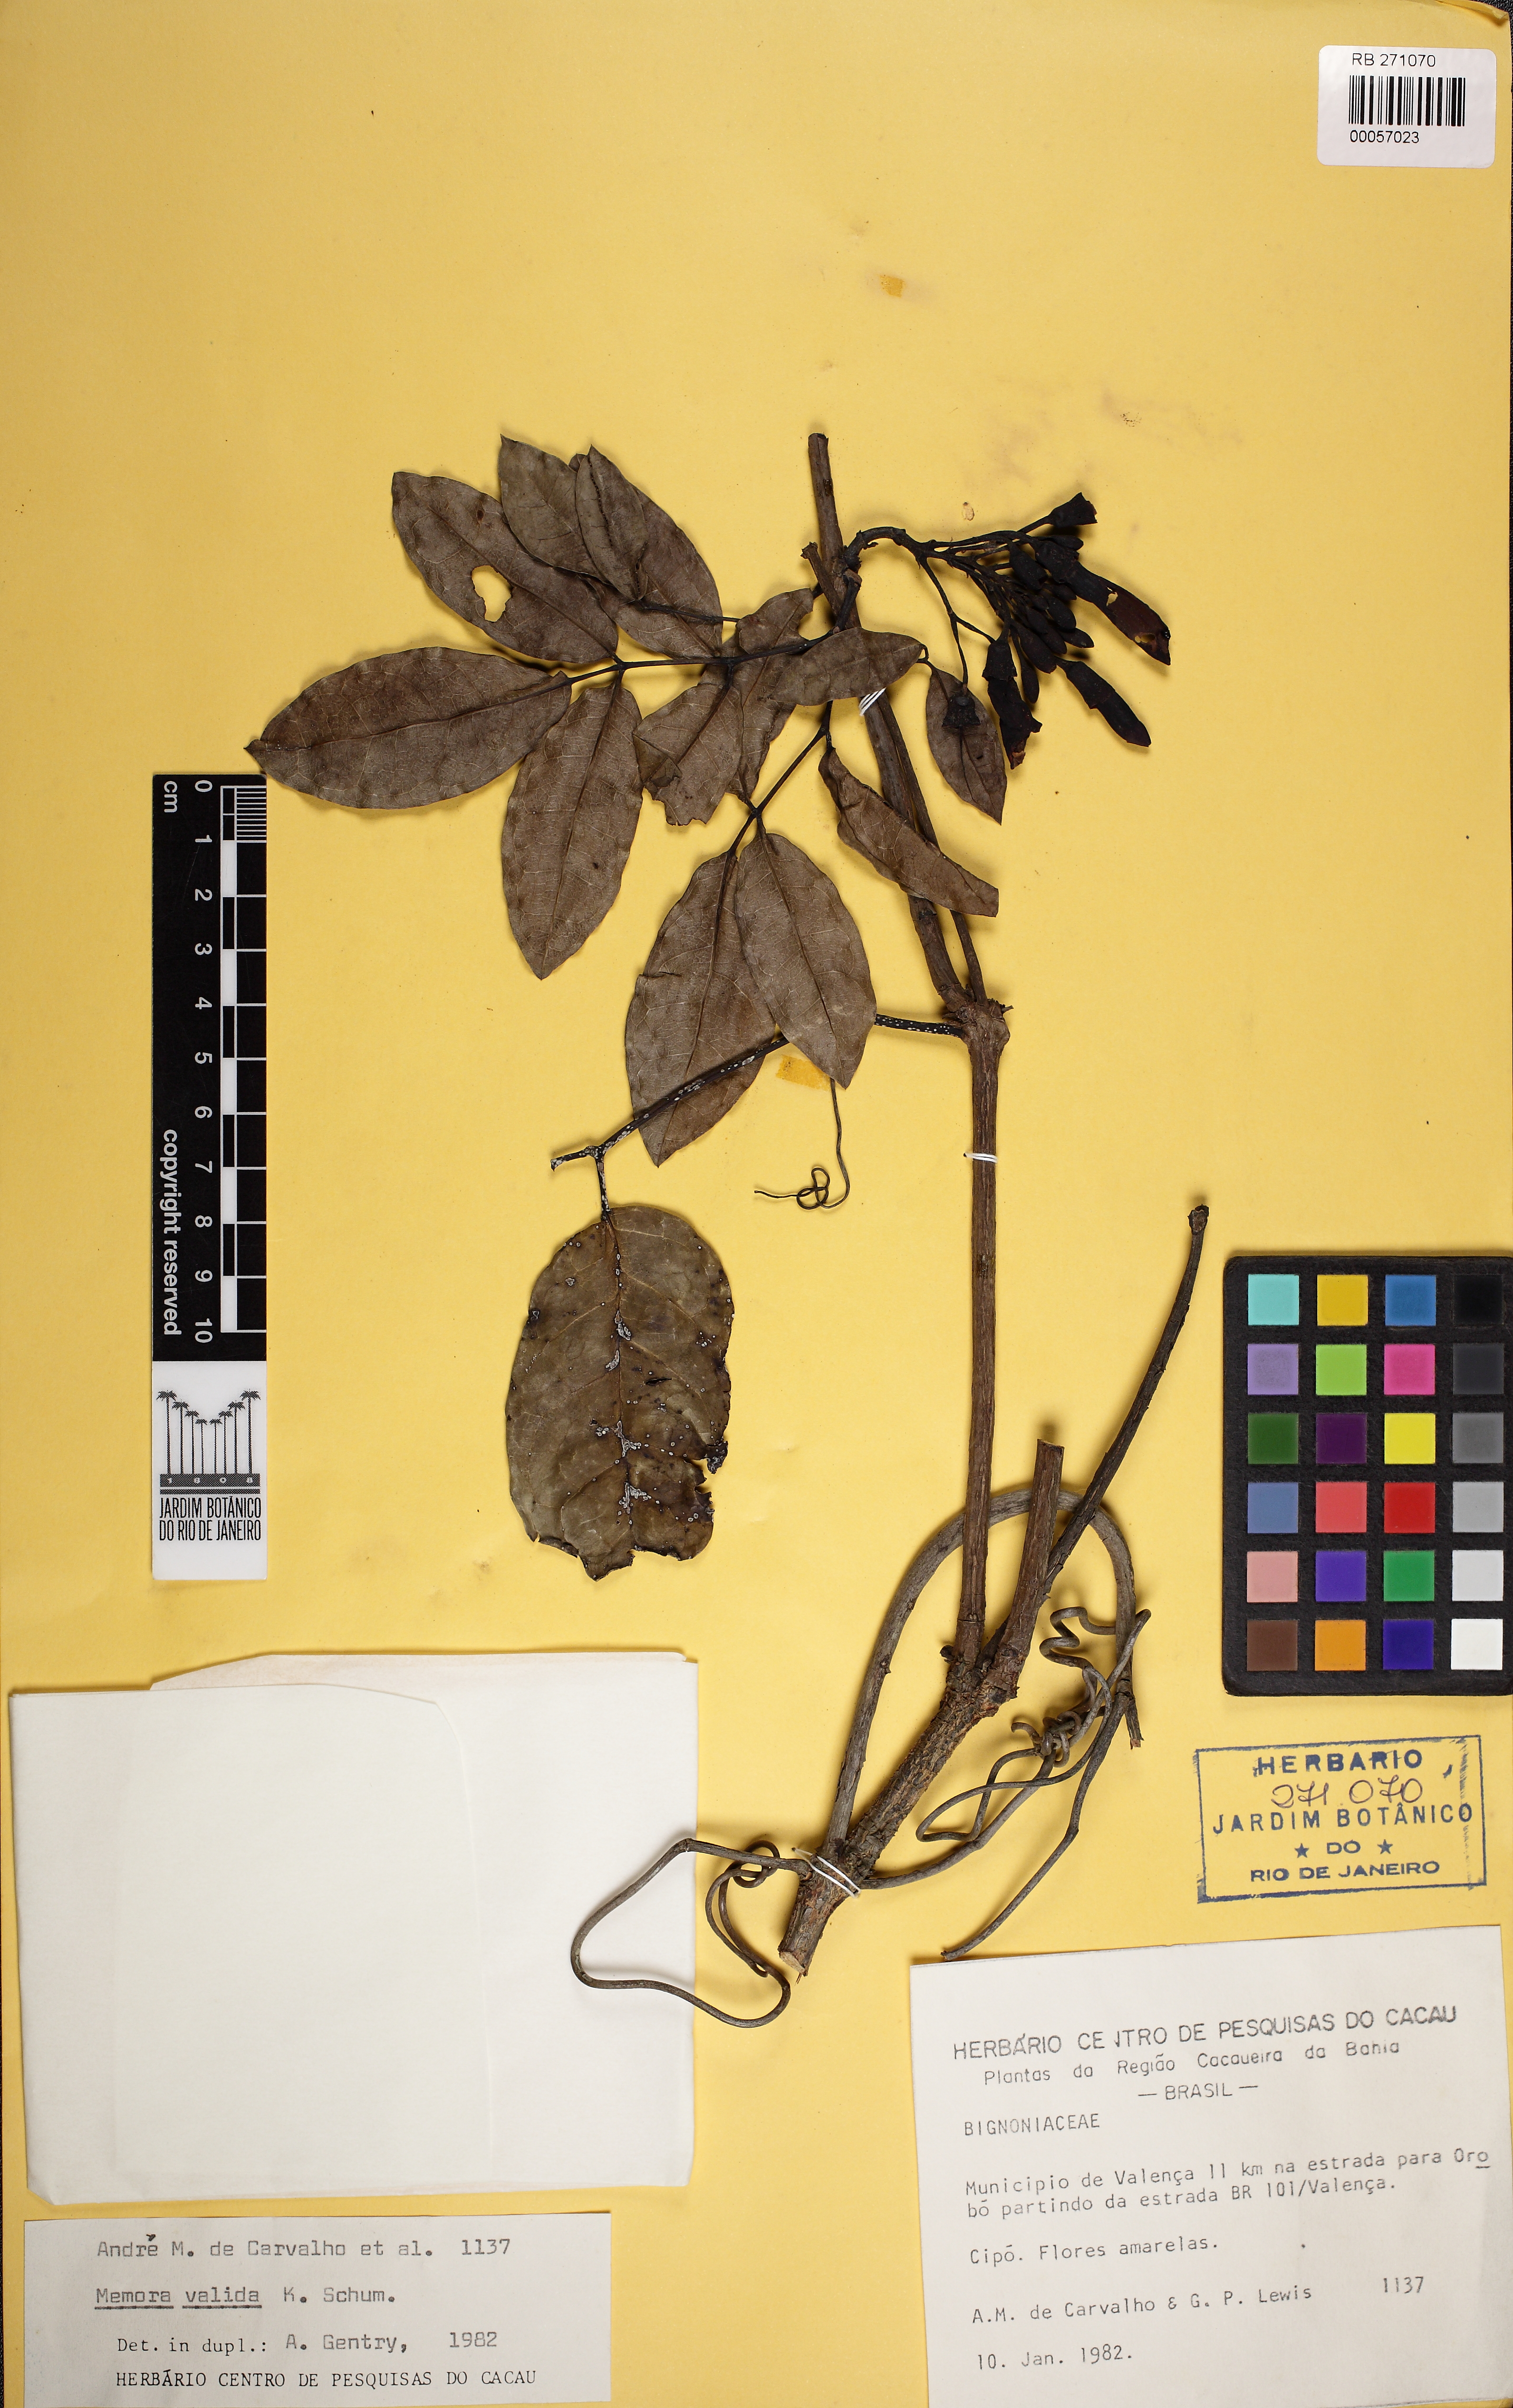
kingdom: Plantae
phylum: Tracheophyta
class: Magnoliopsida
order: Lamiales
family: Bignoniaceae
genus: Adenocalymma
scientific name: Adenocalymma validum
